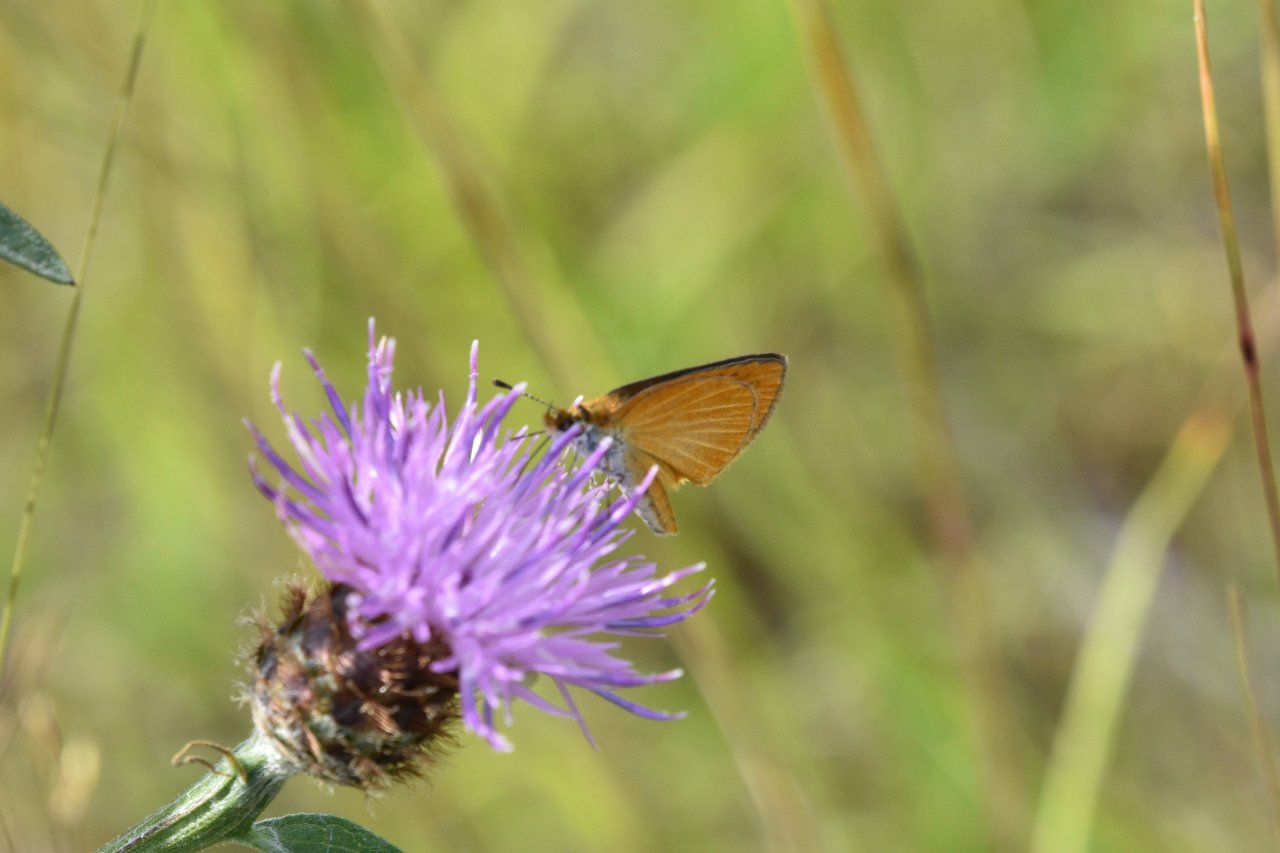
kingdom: Animalia
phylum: Arthropoda
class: Insecta
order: Lepidoptera
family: Hesperiidae
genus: Ancyloxypha
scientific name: Ancyloxypha numitor
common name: Least Skipper
